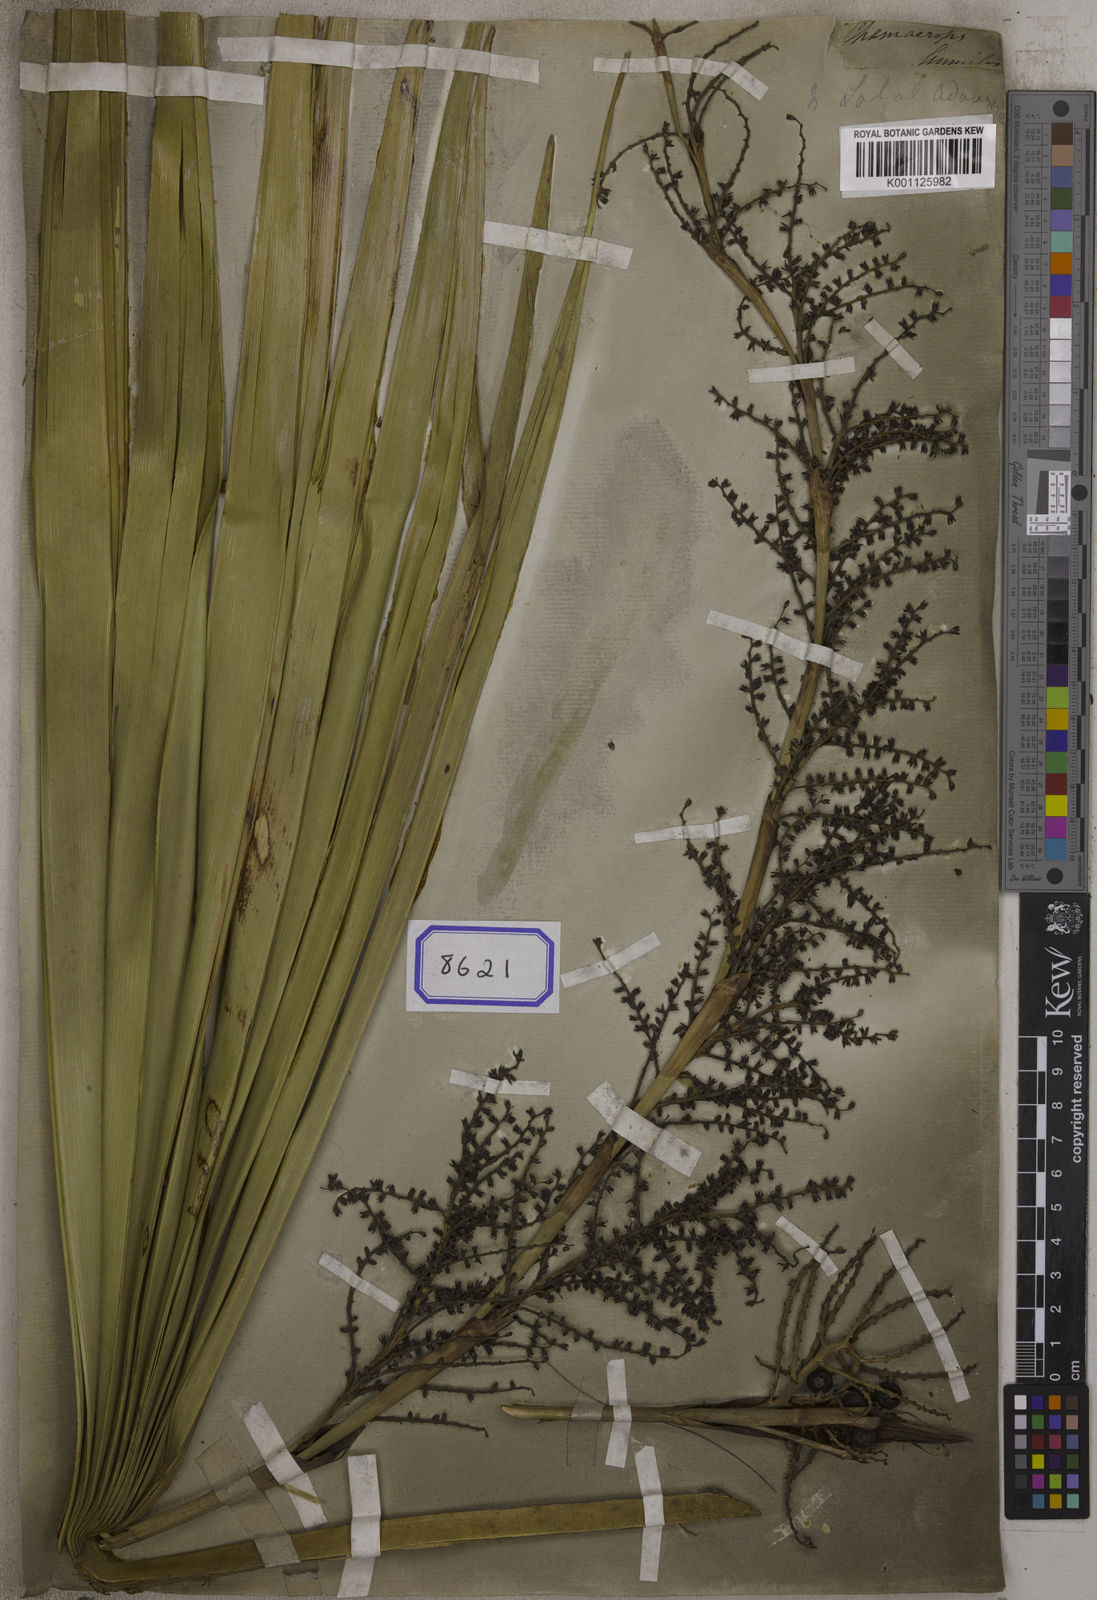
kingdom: Plantae
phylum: Tracheophyta
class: Liliopsida
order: Arecales
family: Arecaceae
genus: Chamaerops
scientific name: Chamaerops
